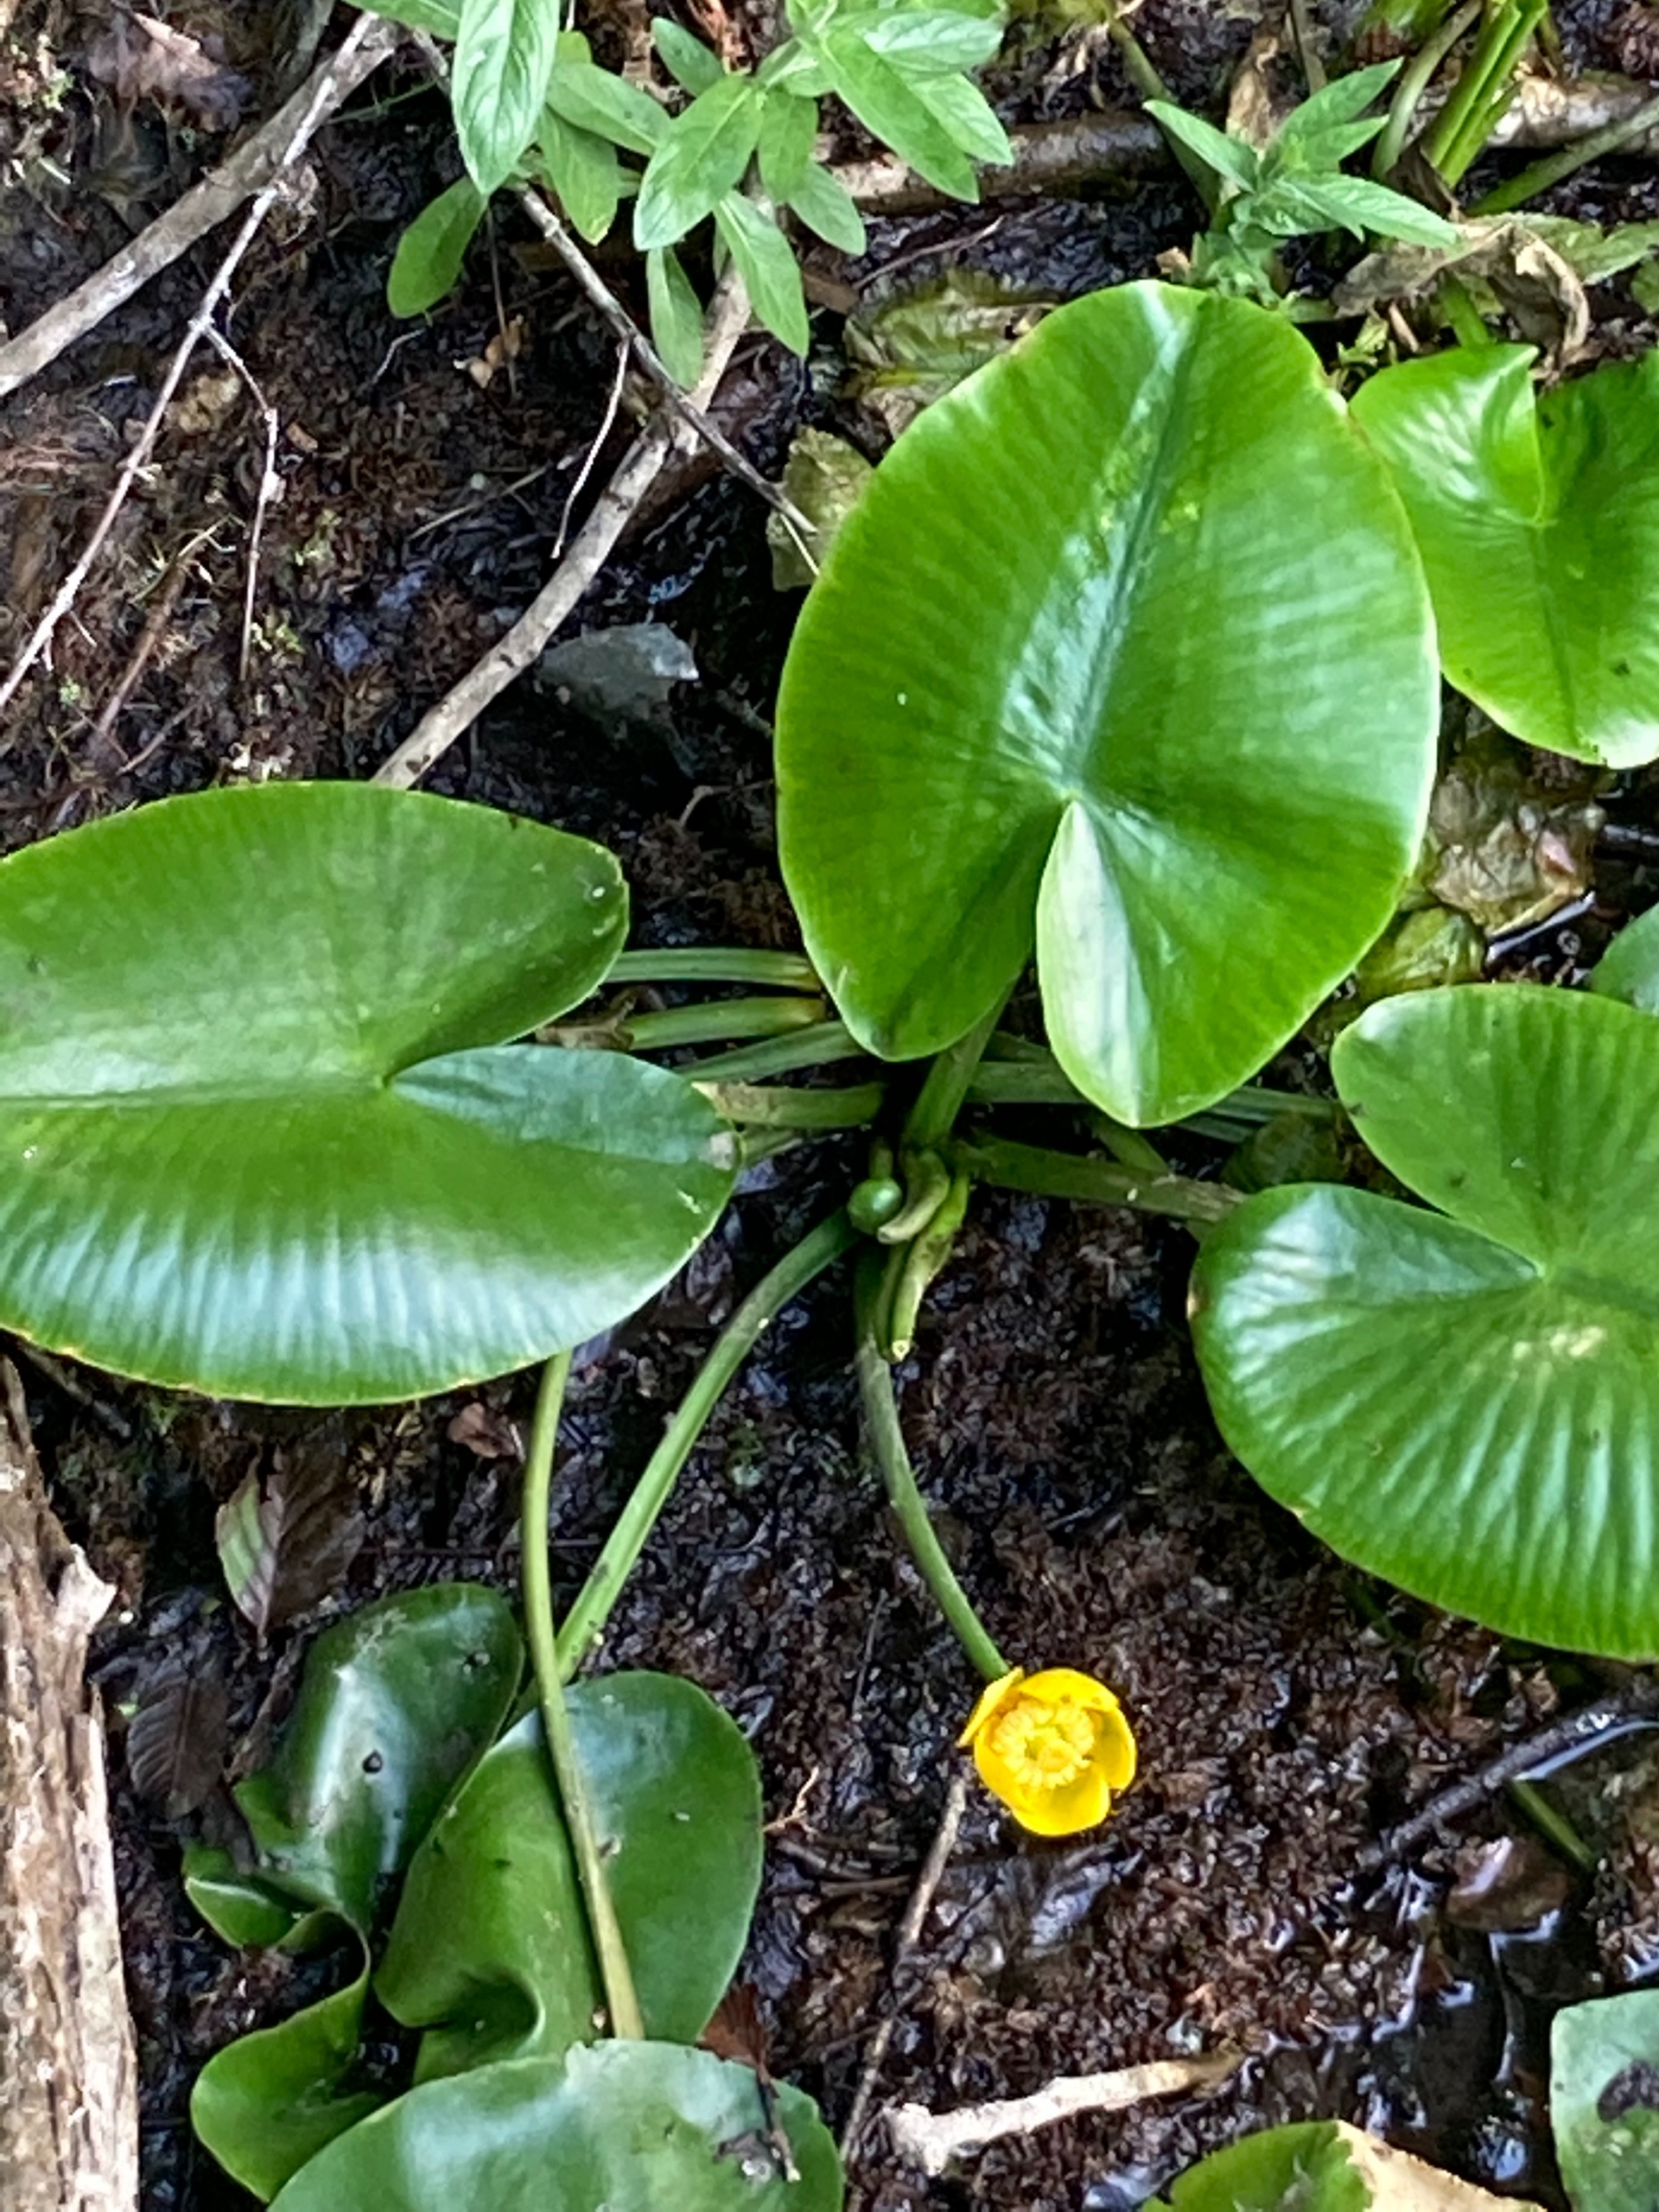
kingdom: Plantae
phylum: Tracheophyta
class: Magnoliopsida
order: Nymphaeales
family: Nymphaeaceae
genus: Nuphar
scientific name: Nuphar lutea
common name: Gul åkande
